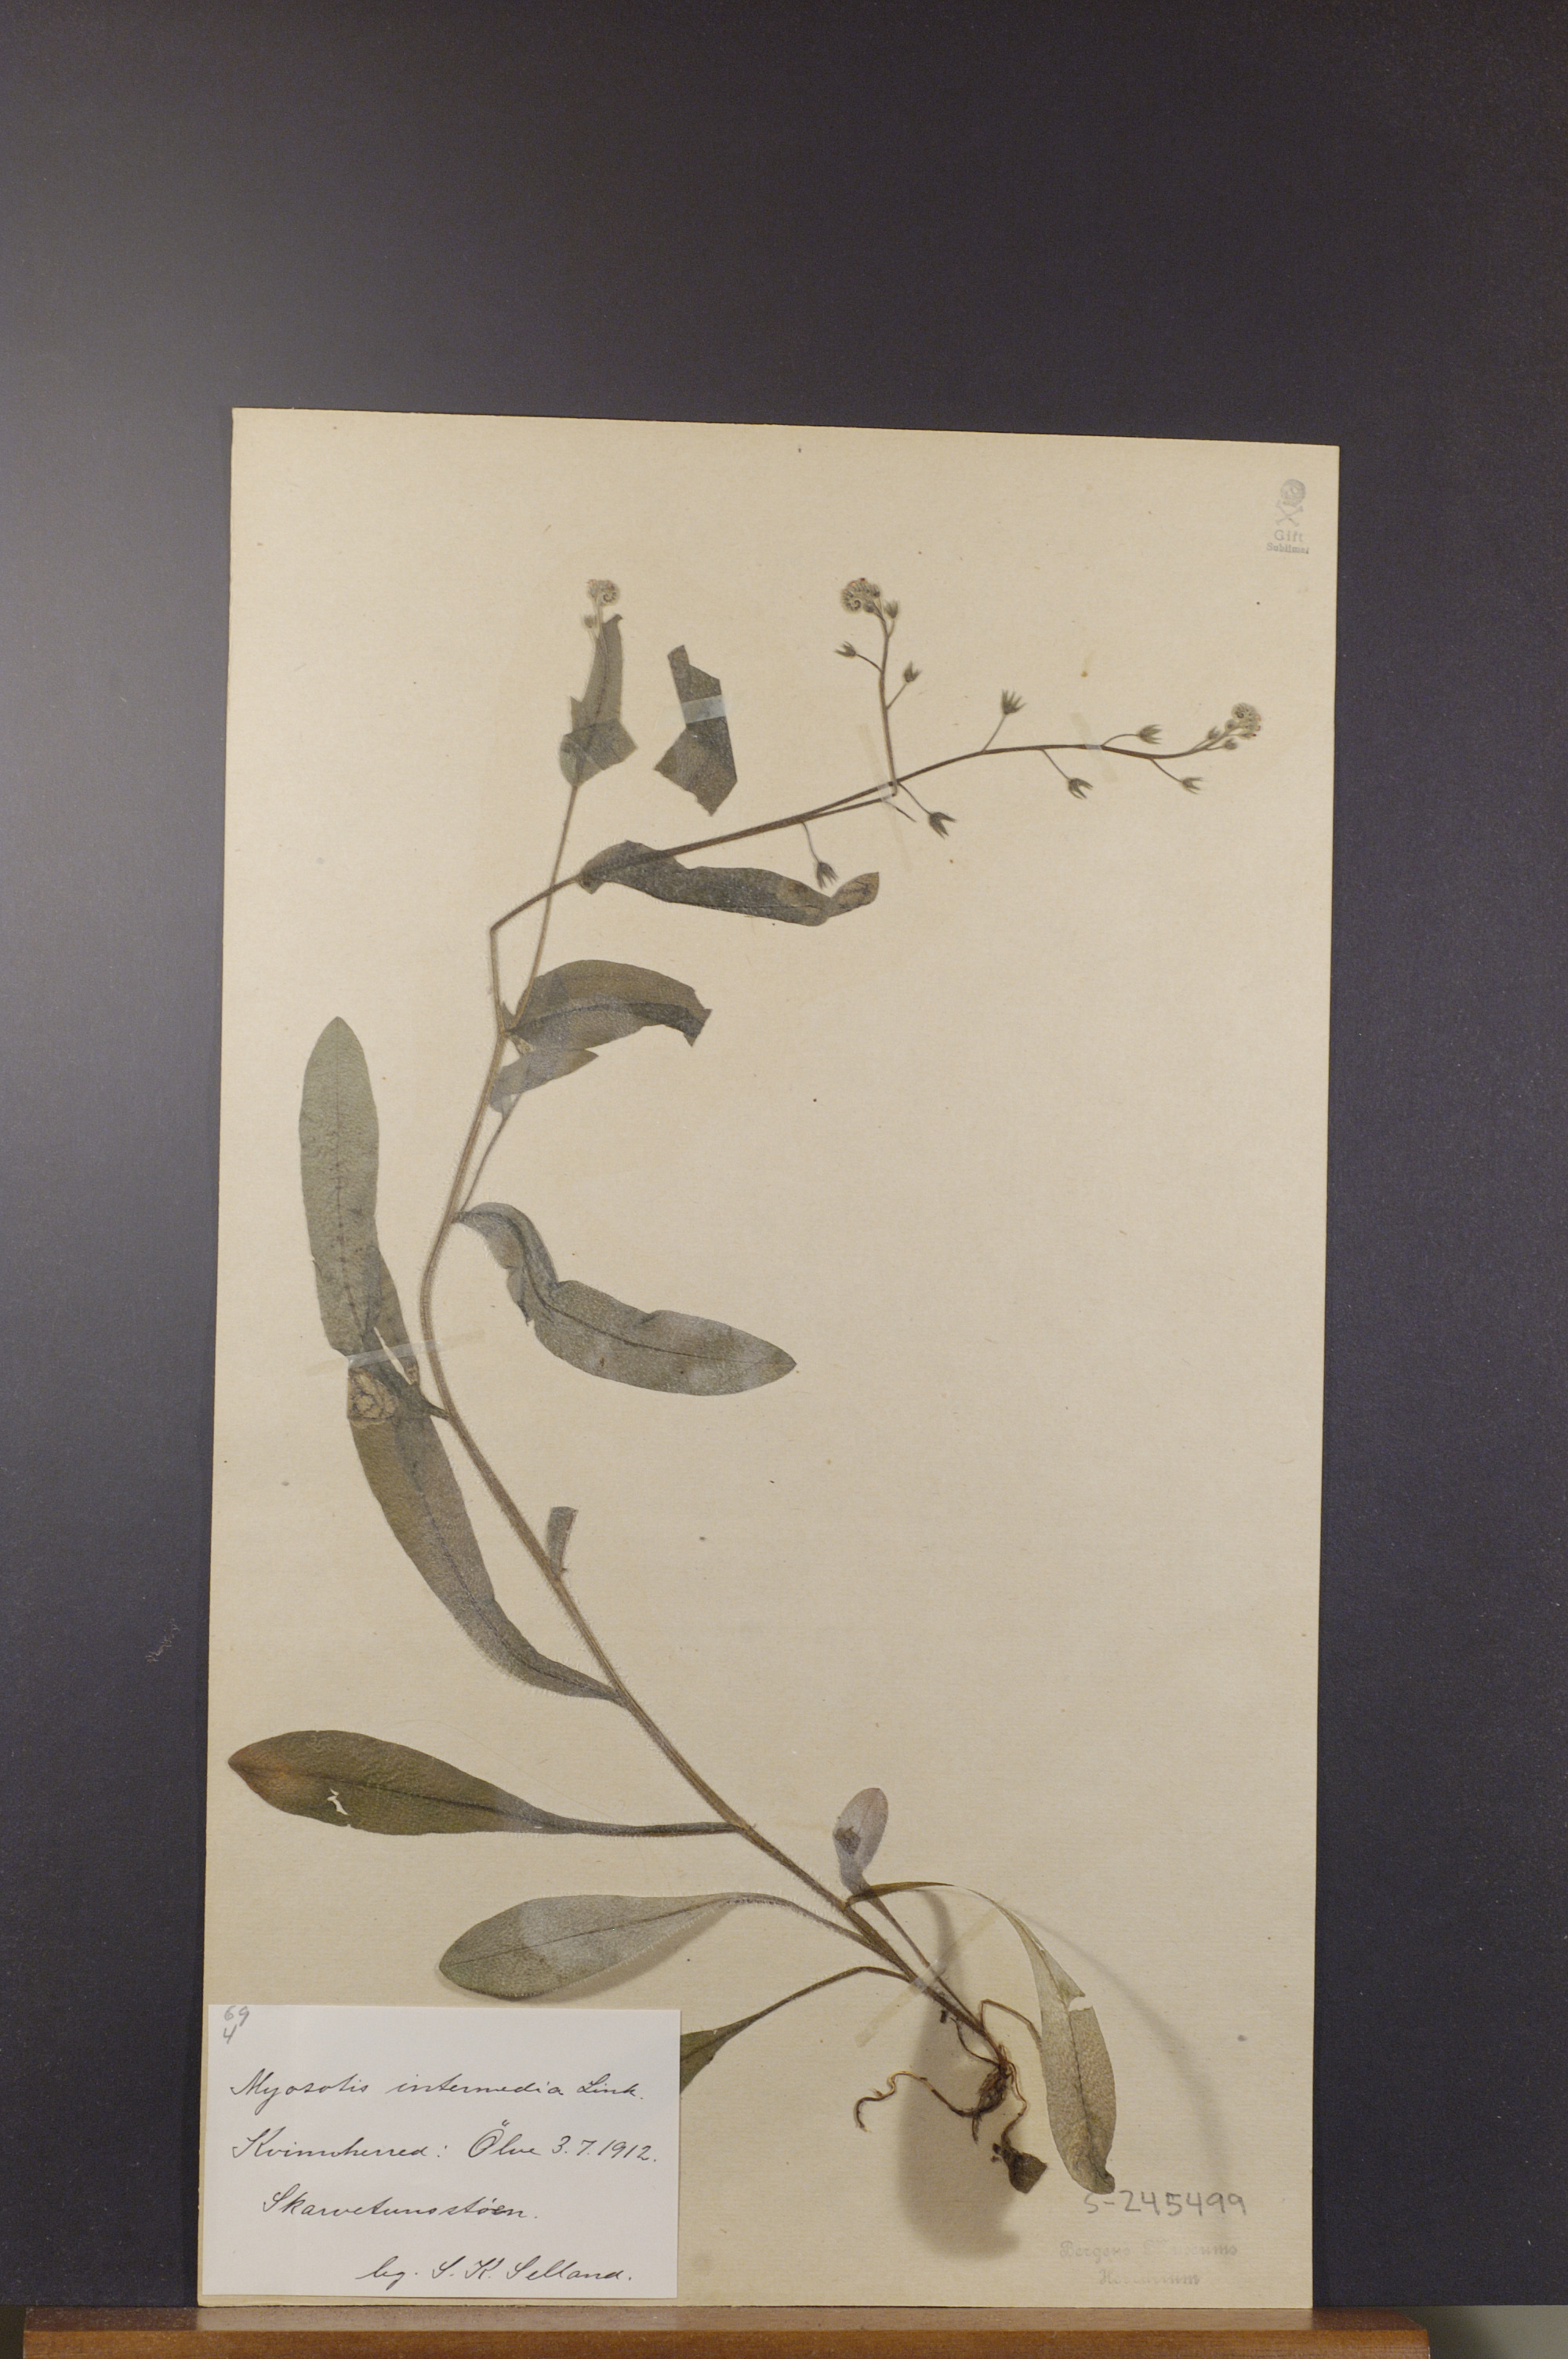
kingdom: Plantae
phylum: Tracheophyta
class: Magnoliopsida
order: Boraginales
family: Boraginaceae
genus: Myosotis
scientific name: Myosotis arvensis
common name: Field forget-me-not
